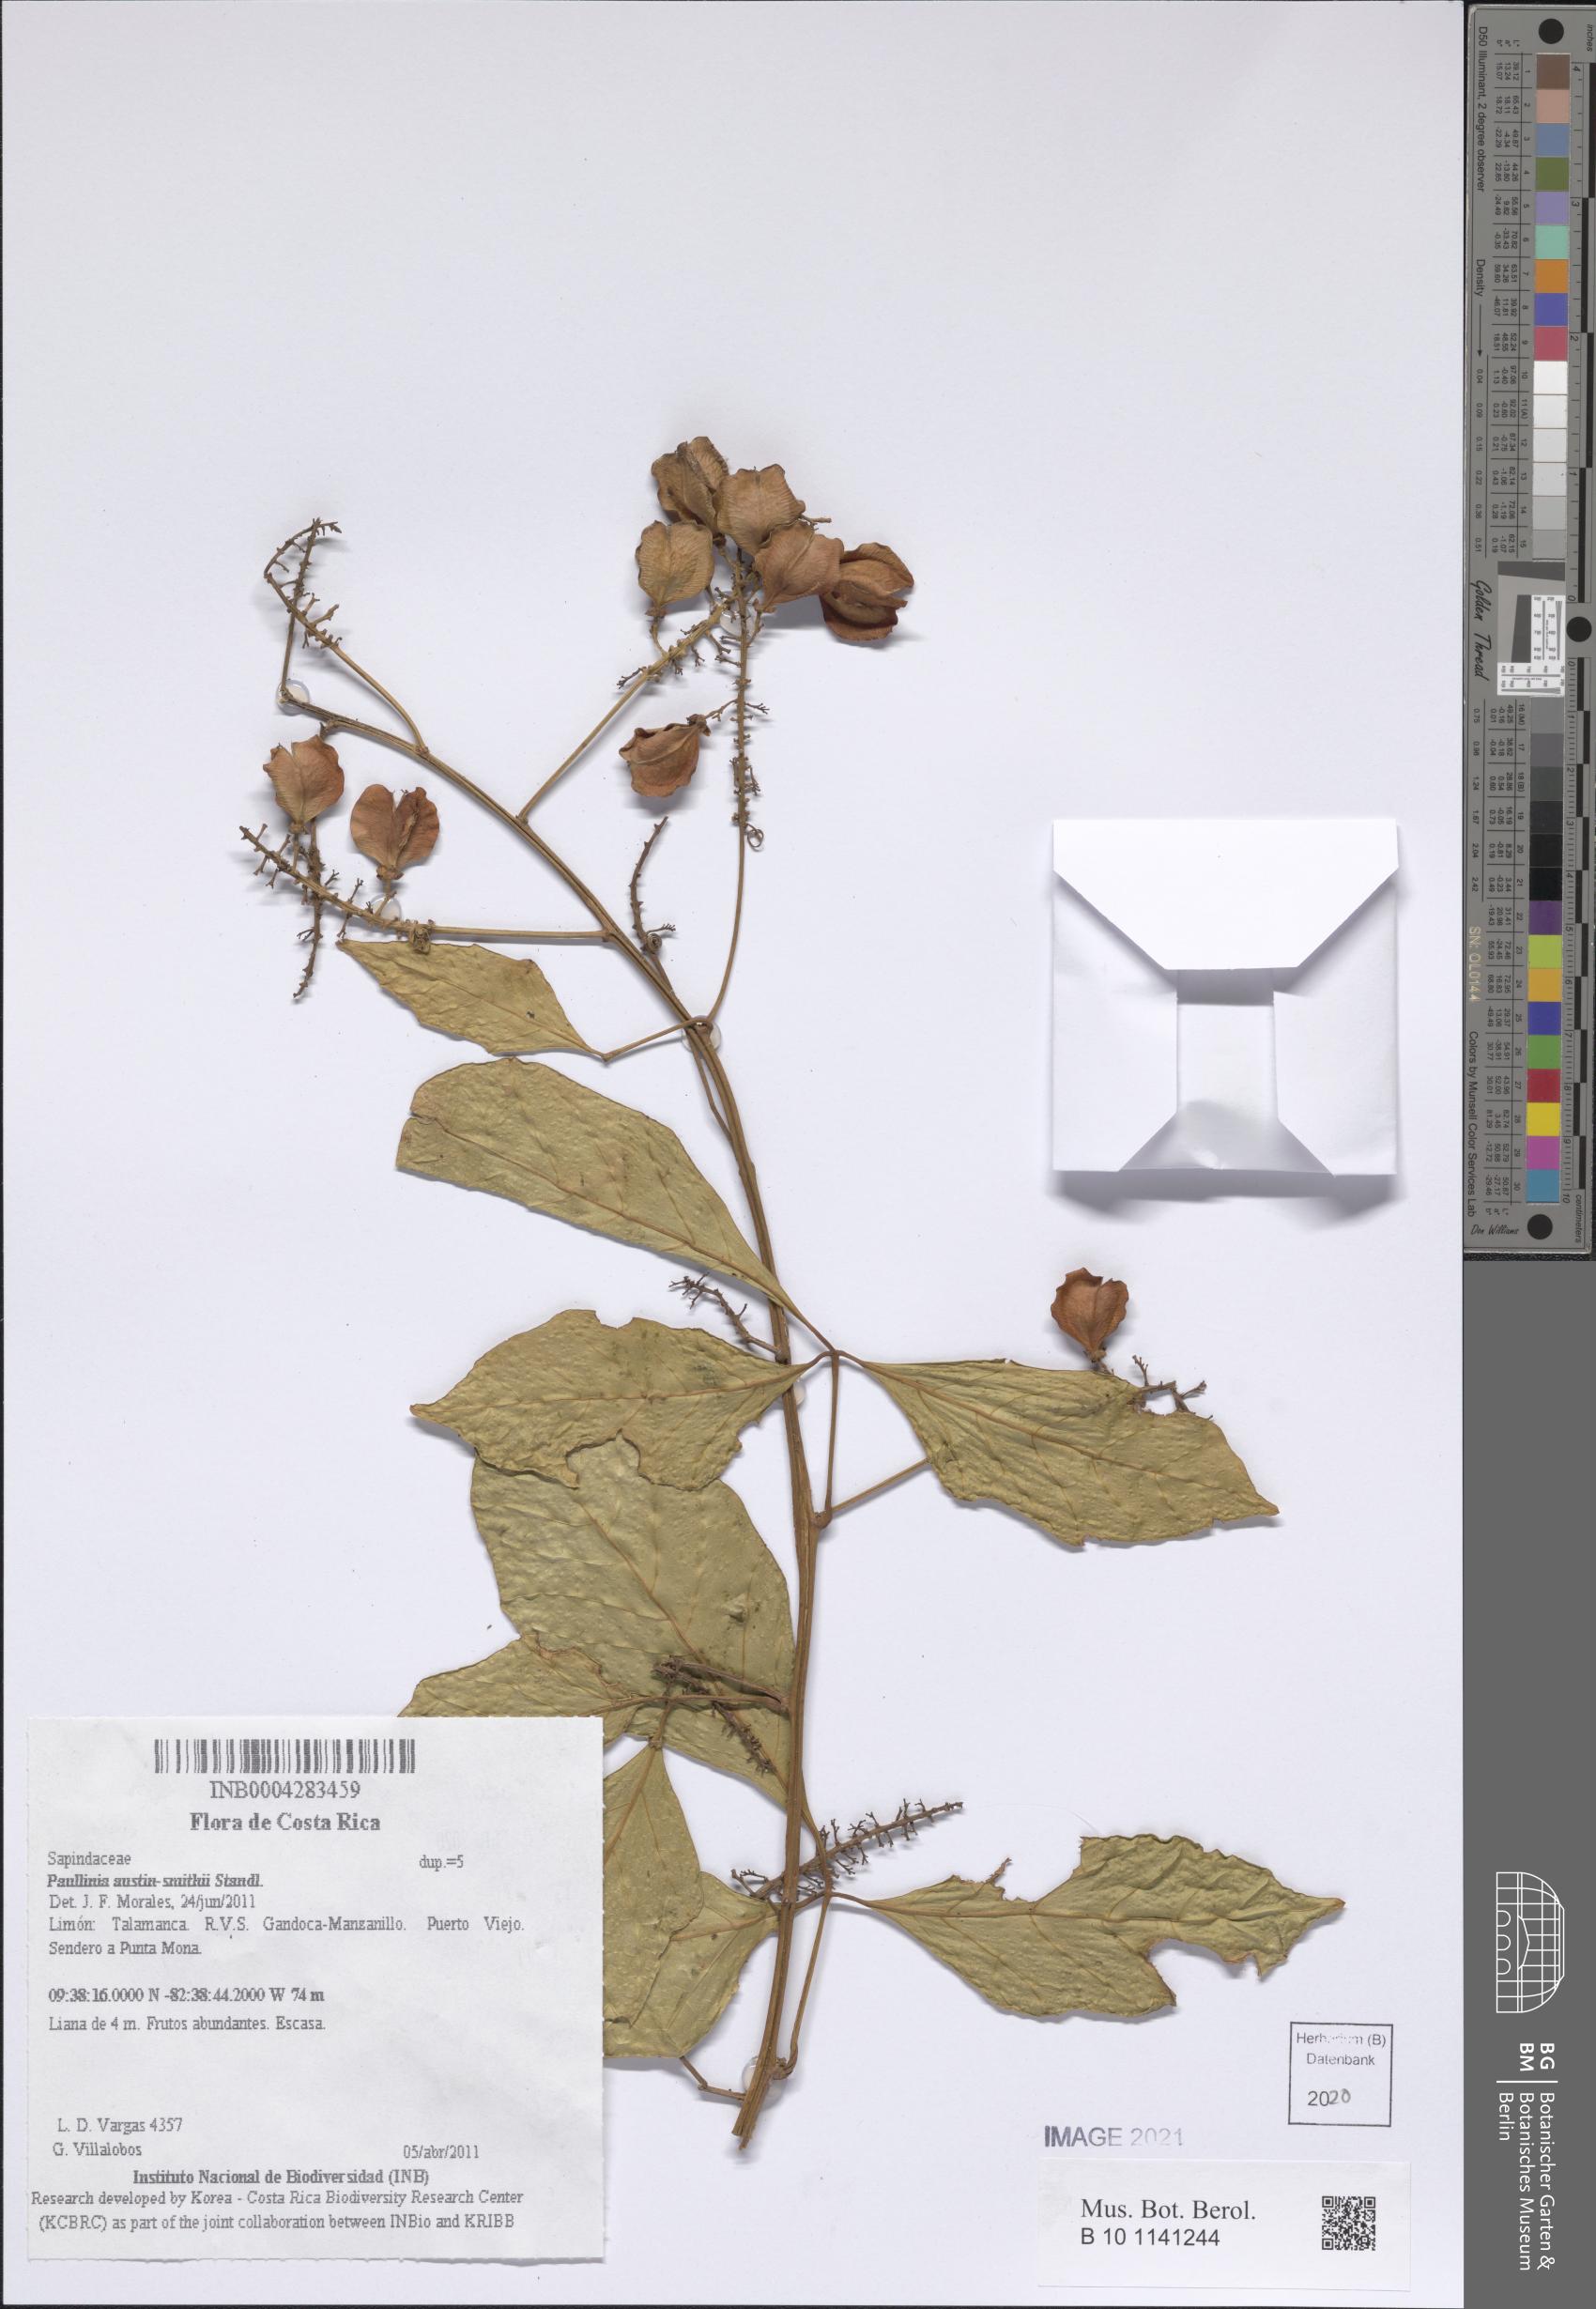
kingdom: Plantae
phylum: Tracheophyta
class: Magnoliopsida
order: Sapindales
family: Sapindaceae
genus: Paullinia
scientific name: Paullinia austin-smithii
